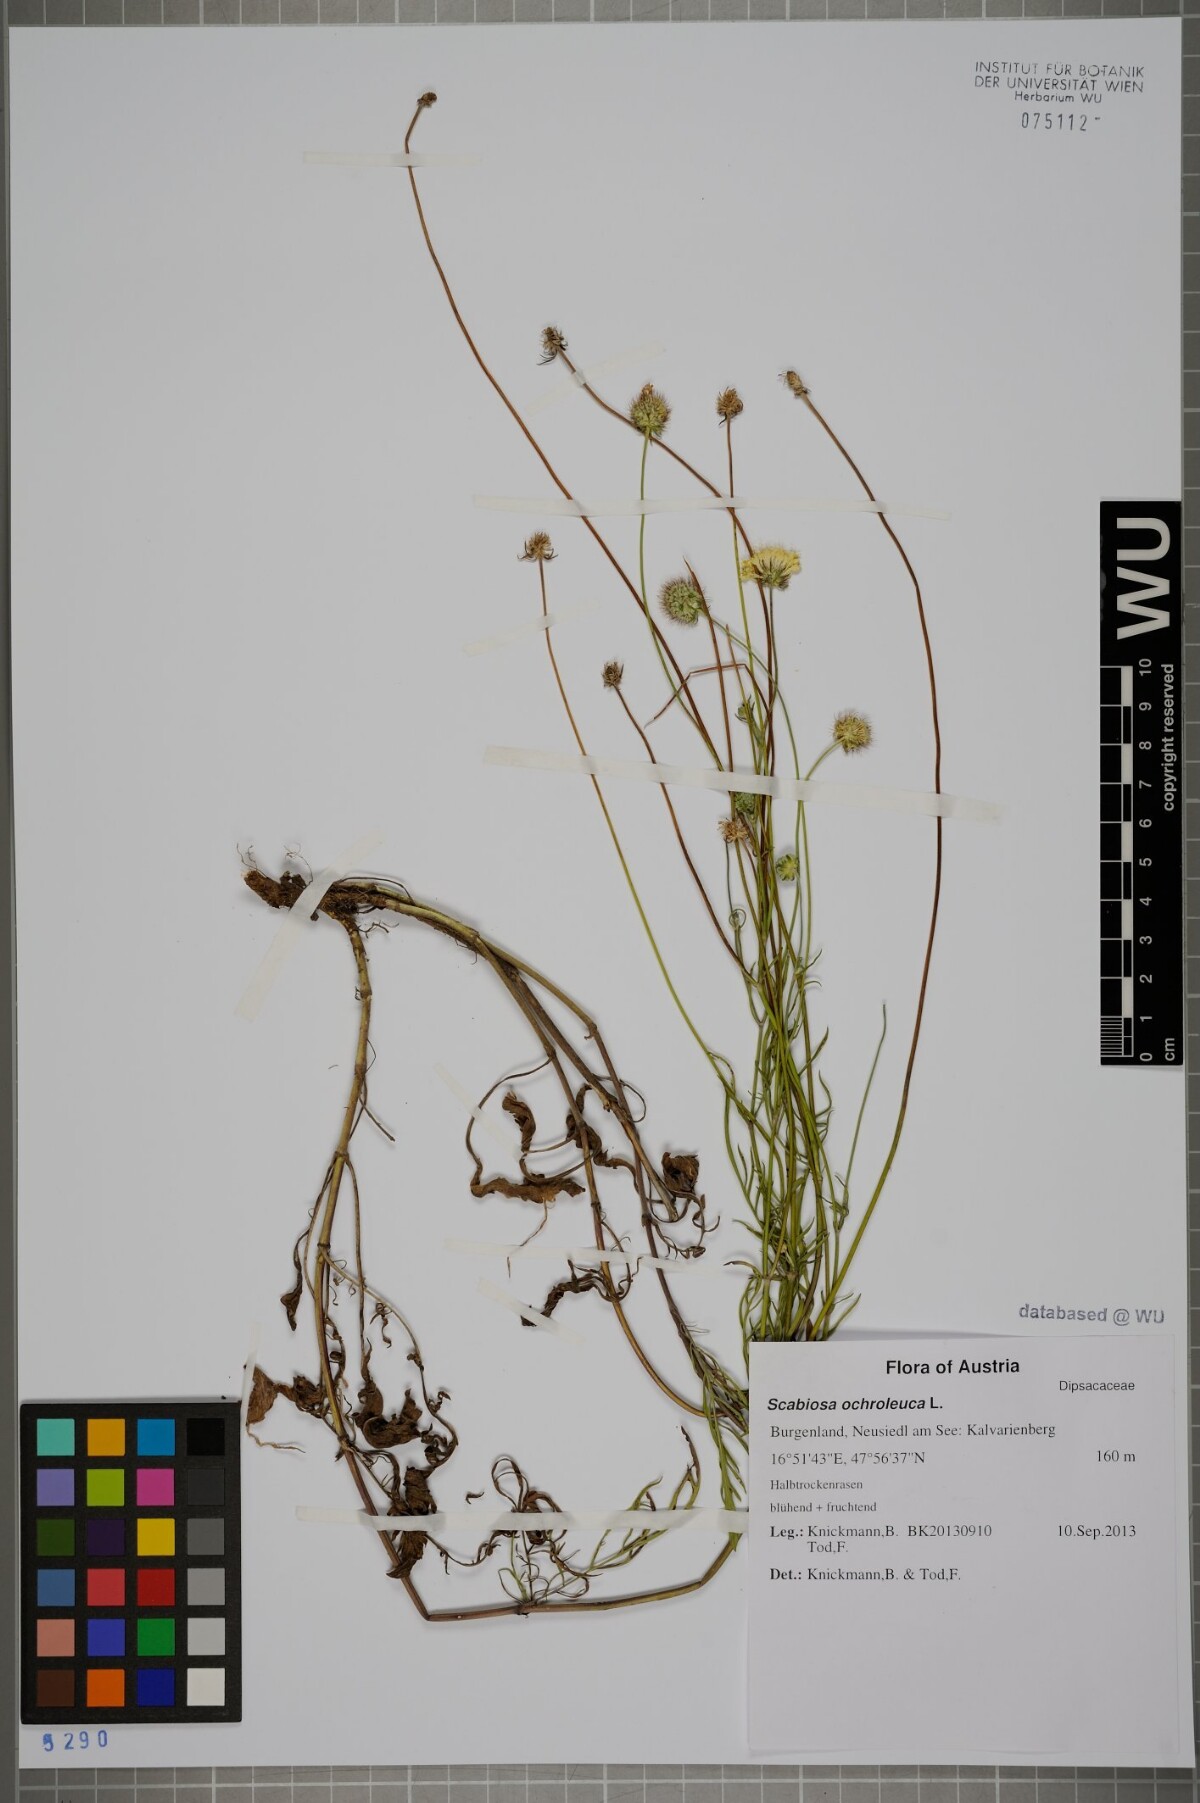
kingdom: Plantae
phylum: Tracheophyta
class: Magnoliopsida
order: Dipsacales
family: Caprifoliaceae
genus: Scabiosa
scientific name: Scabiosa ochroleuca
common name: Cream pincushions
